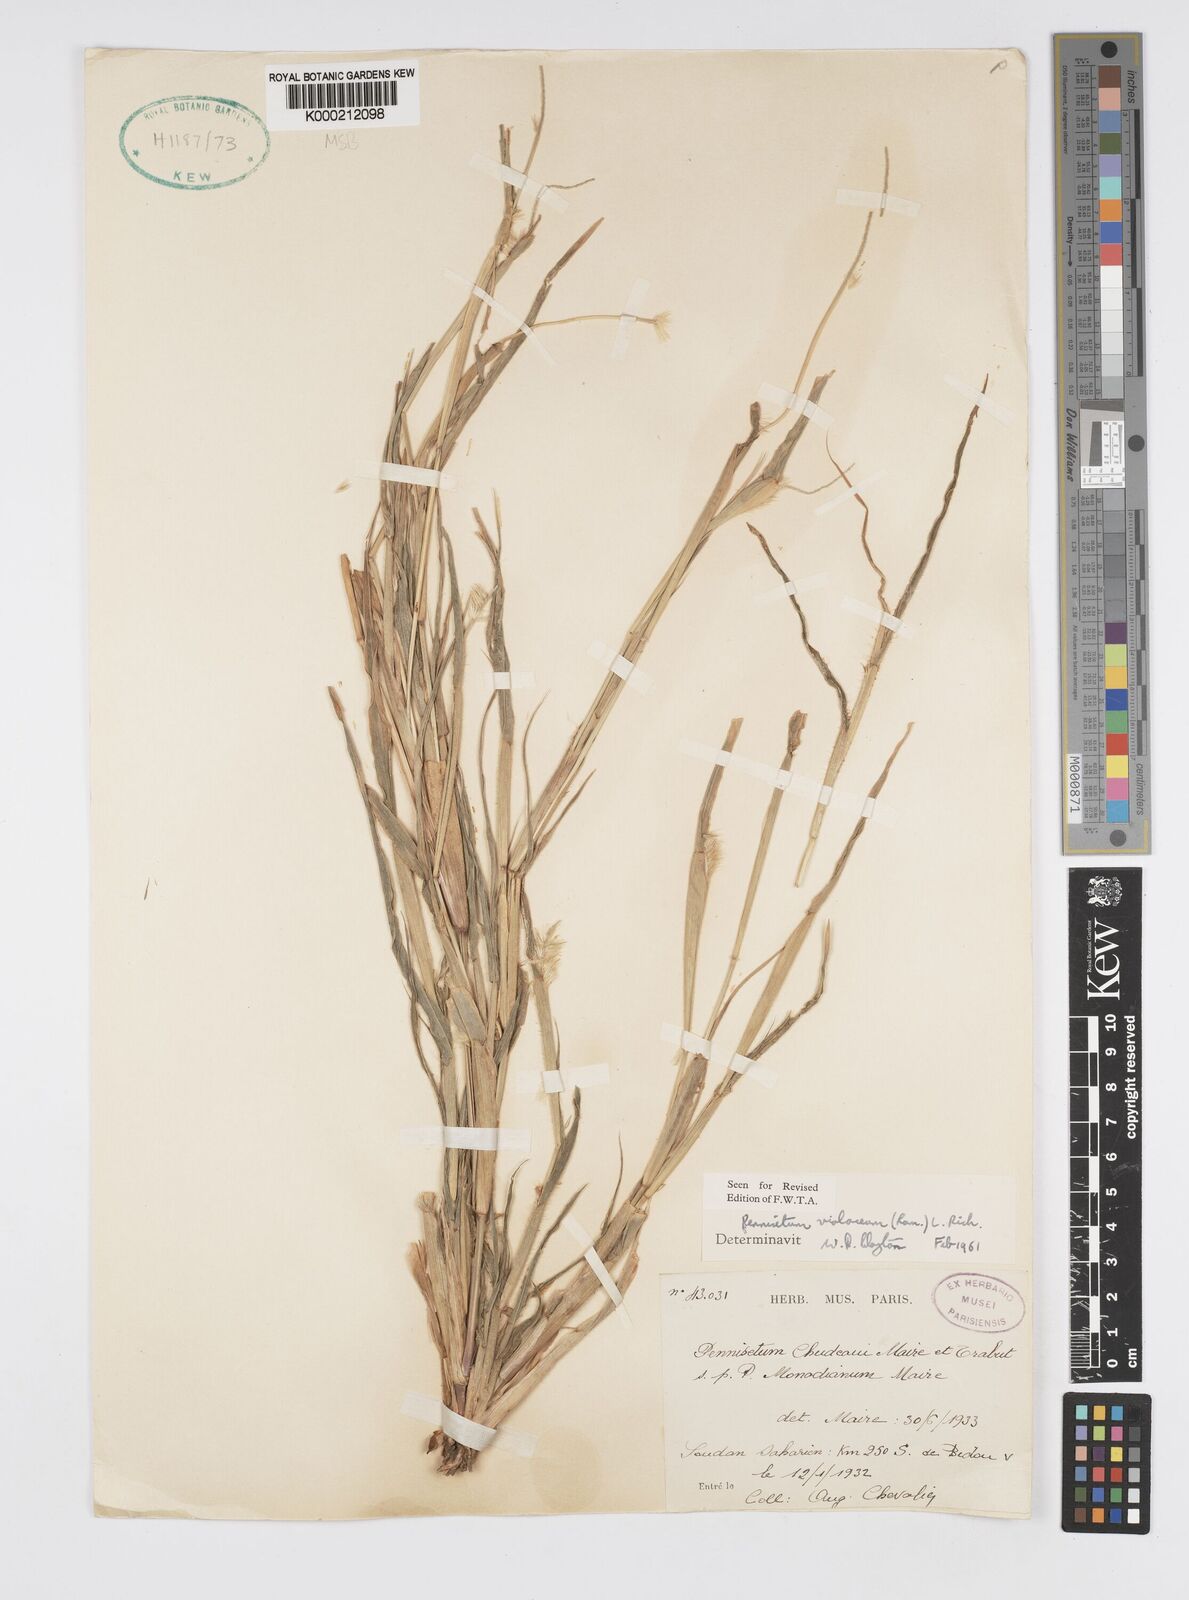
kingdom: Plantae
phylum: Tracheophyta
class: Liliopsida
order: Poales
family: Poaceae
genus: Cenchrus
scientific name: Cenchrus violaceus
